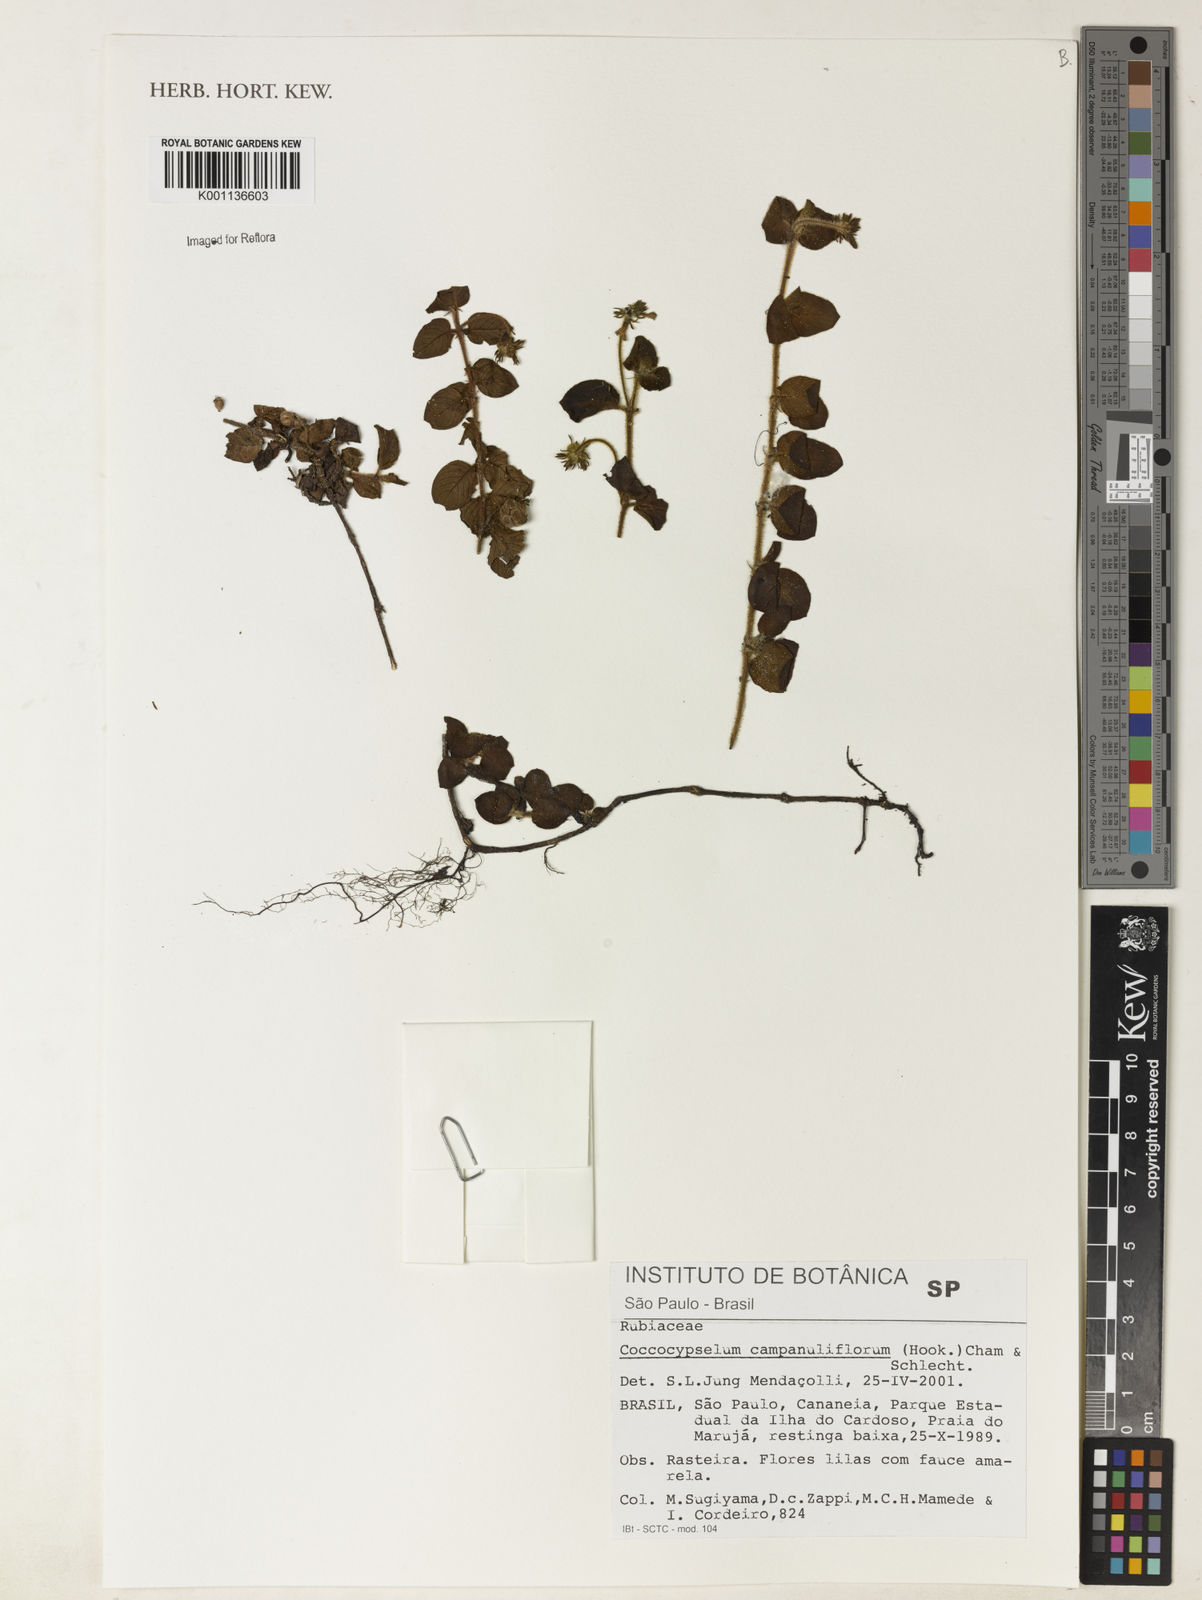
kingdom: Plantae
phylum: Tracheophyta
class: Magnoliopsida
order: Gentianales
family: Rubiaceae
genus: Coccocypselum
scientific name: Coccocypselum capitatum
